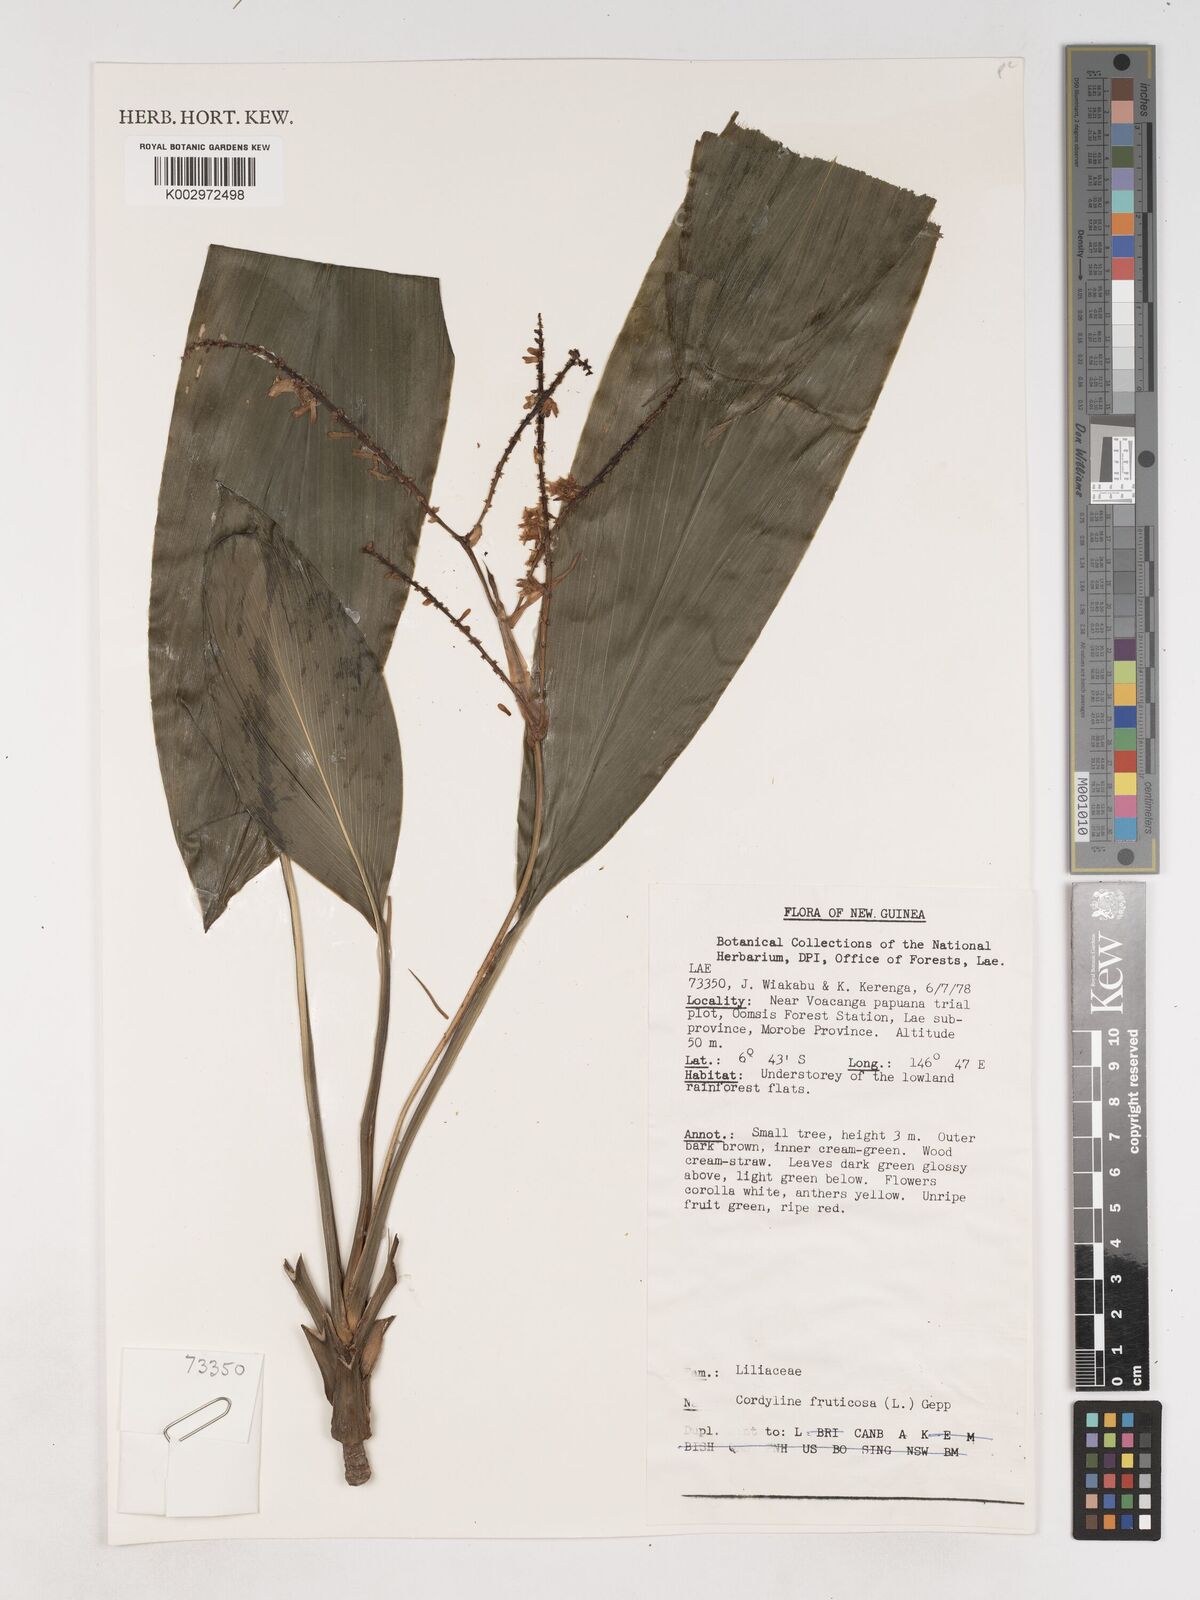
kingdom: Plantae
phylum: Tracheophyta
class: Liliopsida
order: Asparagales
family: Asparagaceae
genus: Cordyline
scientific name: Cordyline fruticosa
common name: Good-luck-plant
